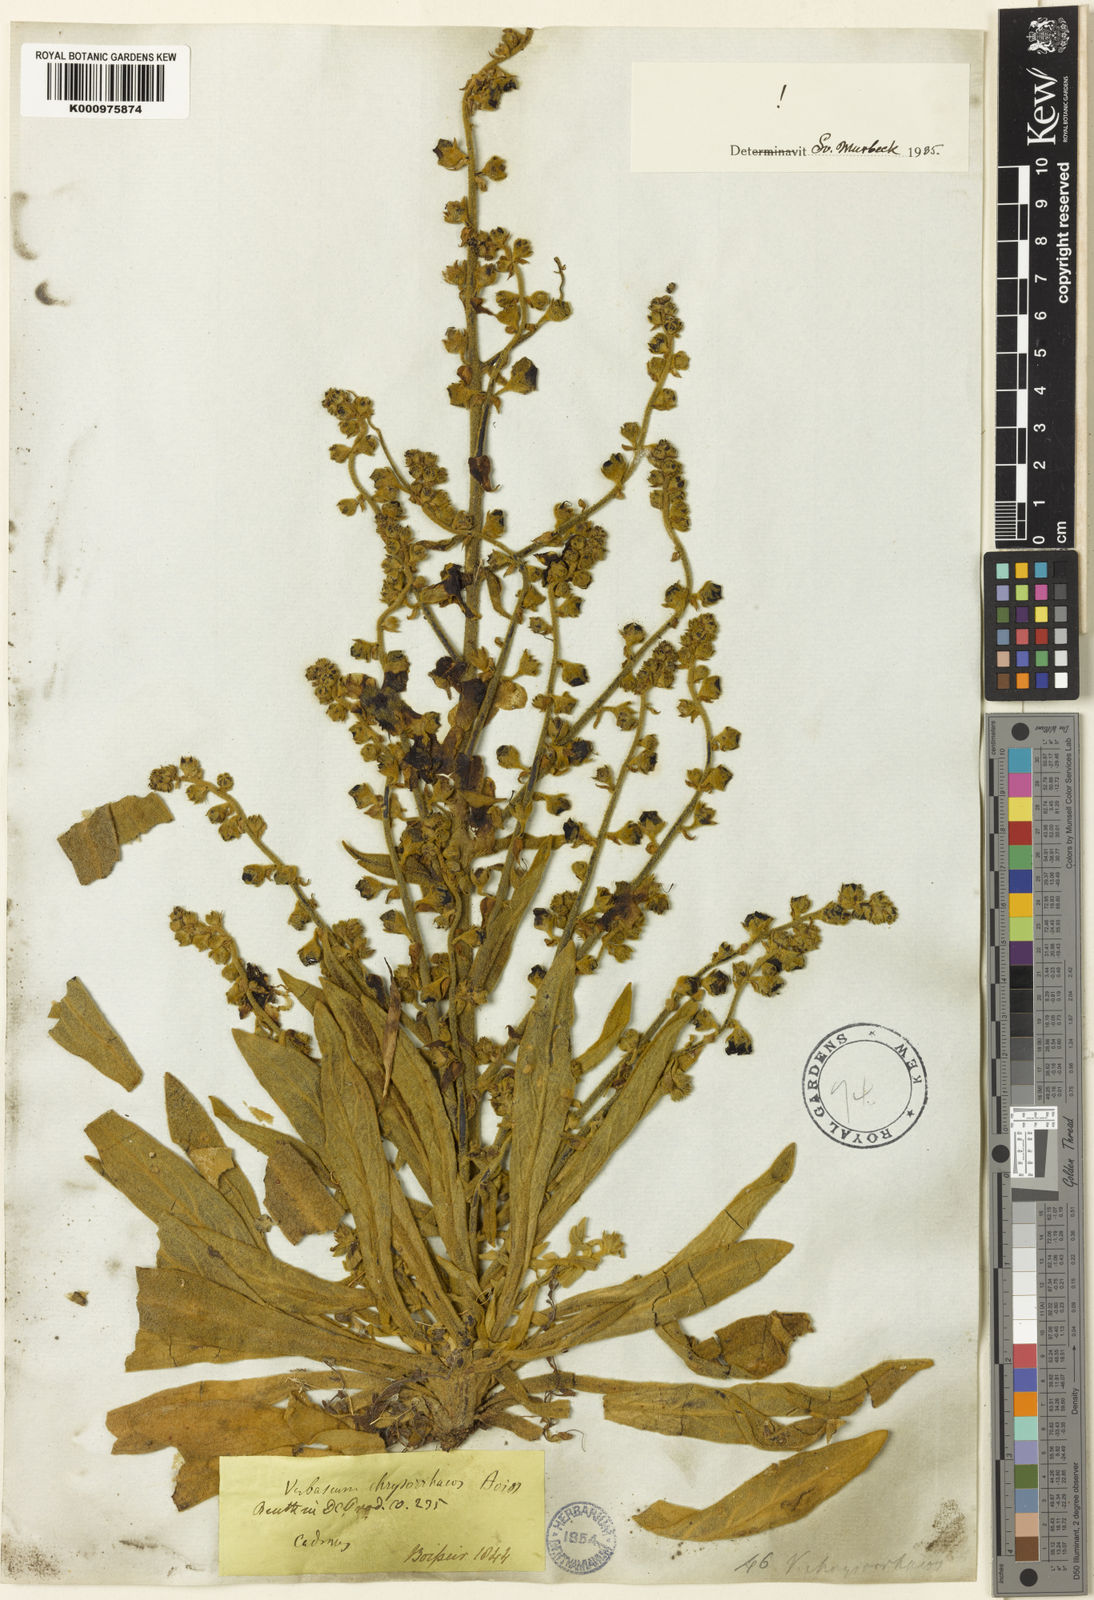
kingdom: Plantae
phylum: Tracheophyta
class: Magnoliopsida
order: Lamiales
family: Scrophulariaceae
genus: Verbascum
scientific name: Verbascum chrysorrhacos
